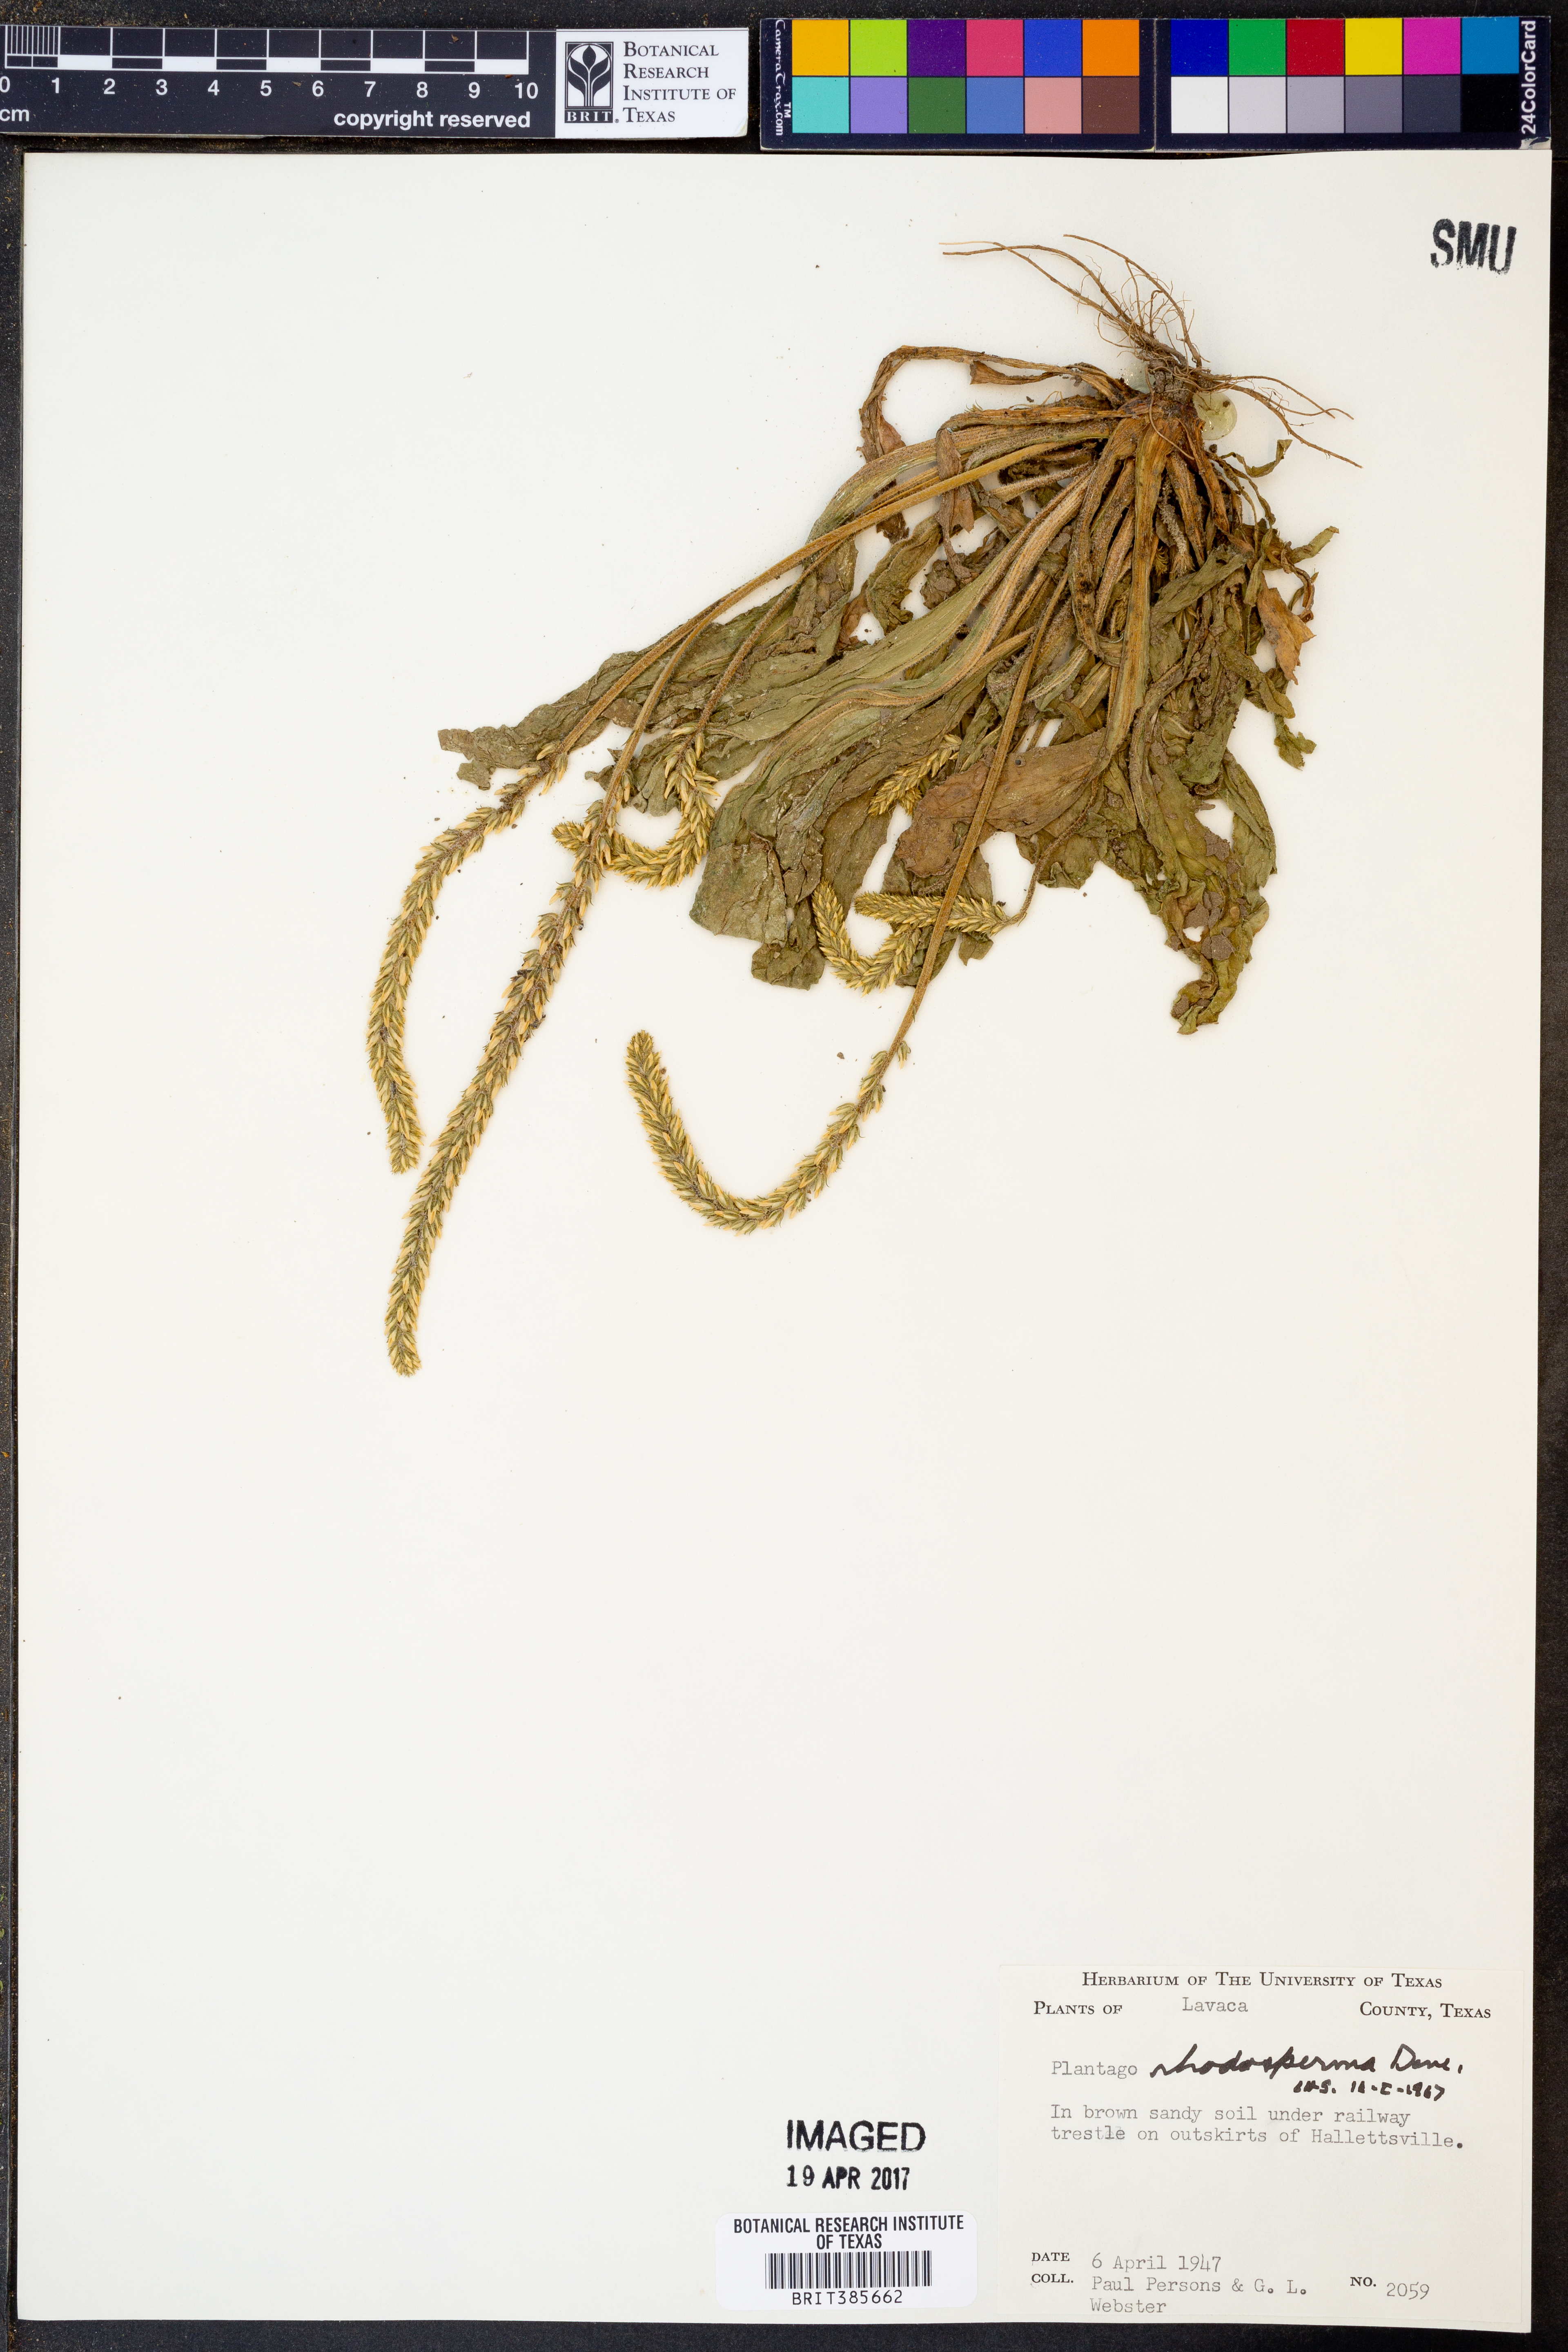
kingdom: Plantae
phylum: Tracheophyta
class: Magnoliopsida
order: Lamiales
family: Plantaginaceae
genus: Plantago
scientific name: Plantago rhodosperma
